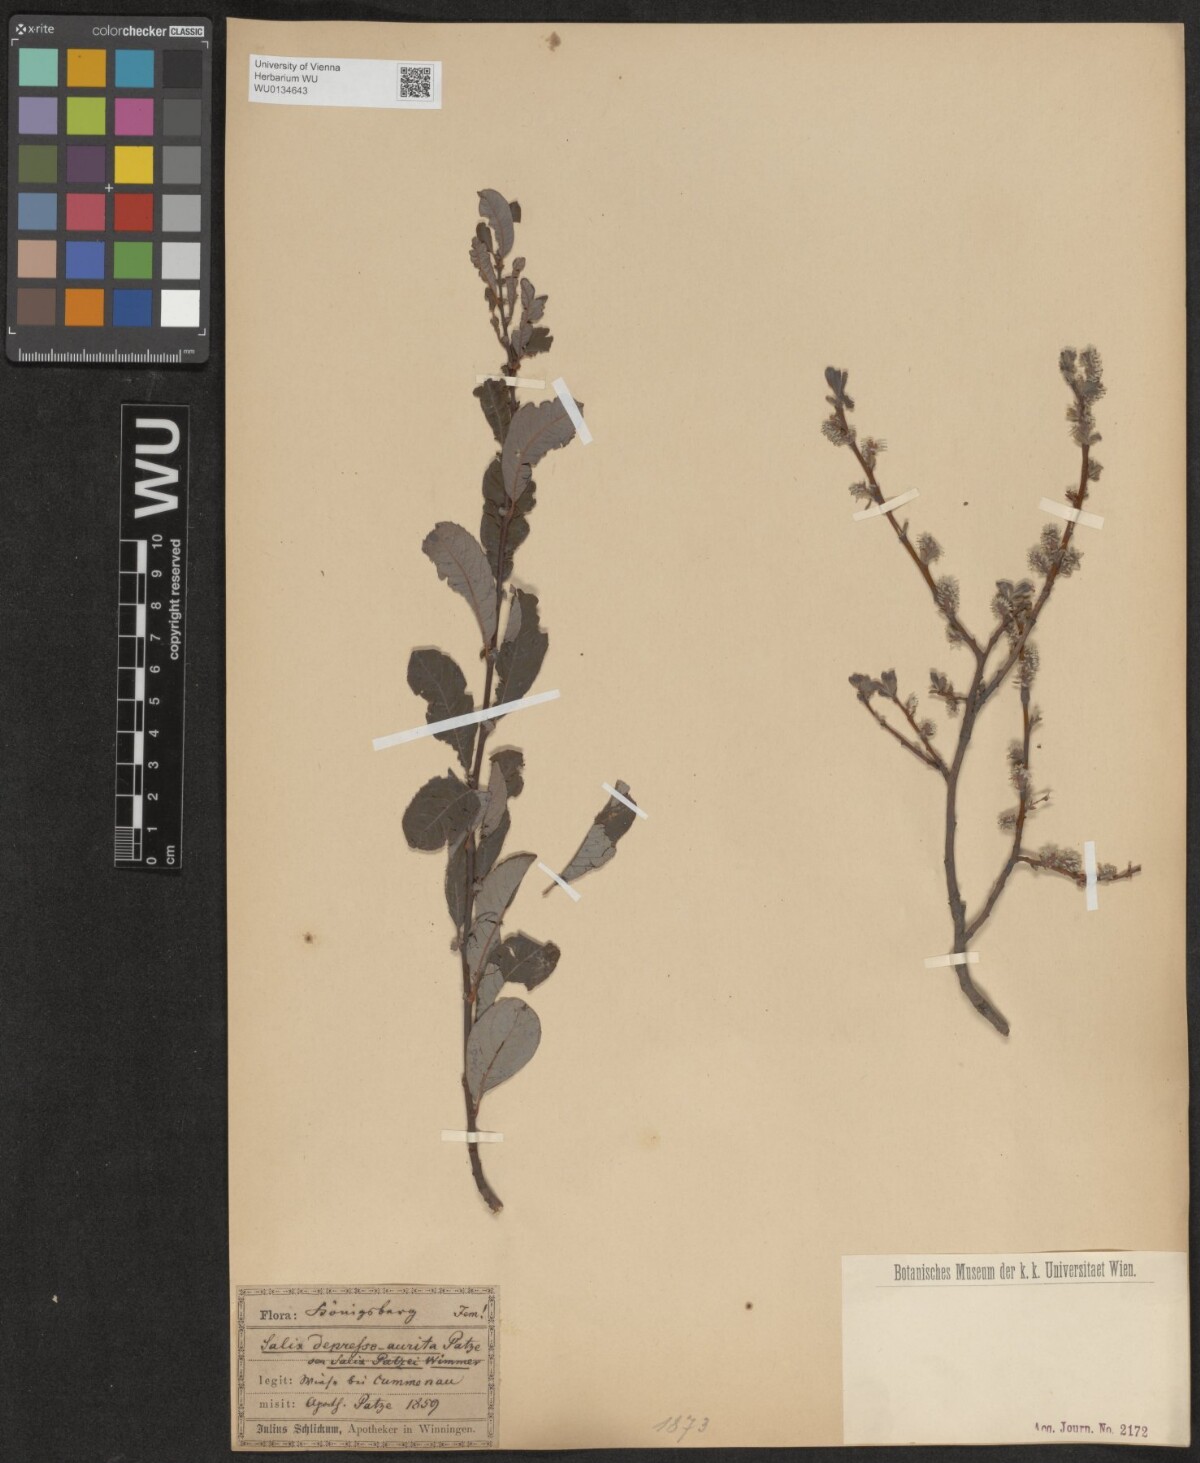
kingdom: Plantae
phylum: Tracheophyta
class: Magnoliopsida
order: Malpighiales
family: Salicaceae
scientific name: Salicaceae
